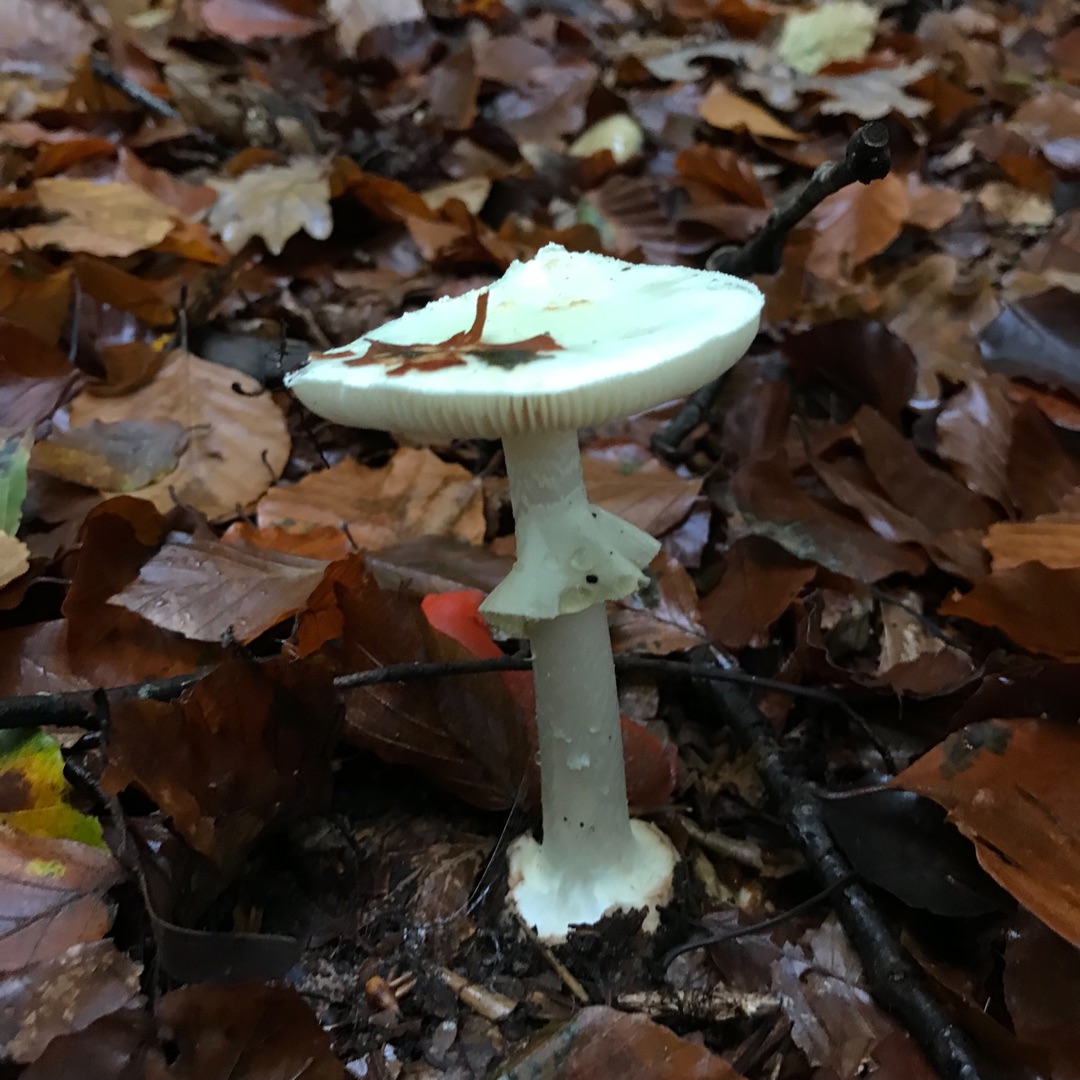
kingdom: Fungi
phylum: Basidiomycota
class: Agaricomycetes
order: Agaricales
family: Amanitaceae
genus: Amanita
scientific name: Amanita citrina
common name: Kugleknoldet fluesvamp
